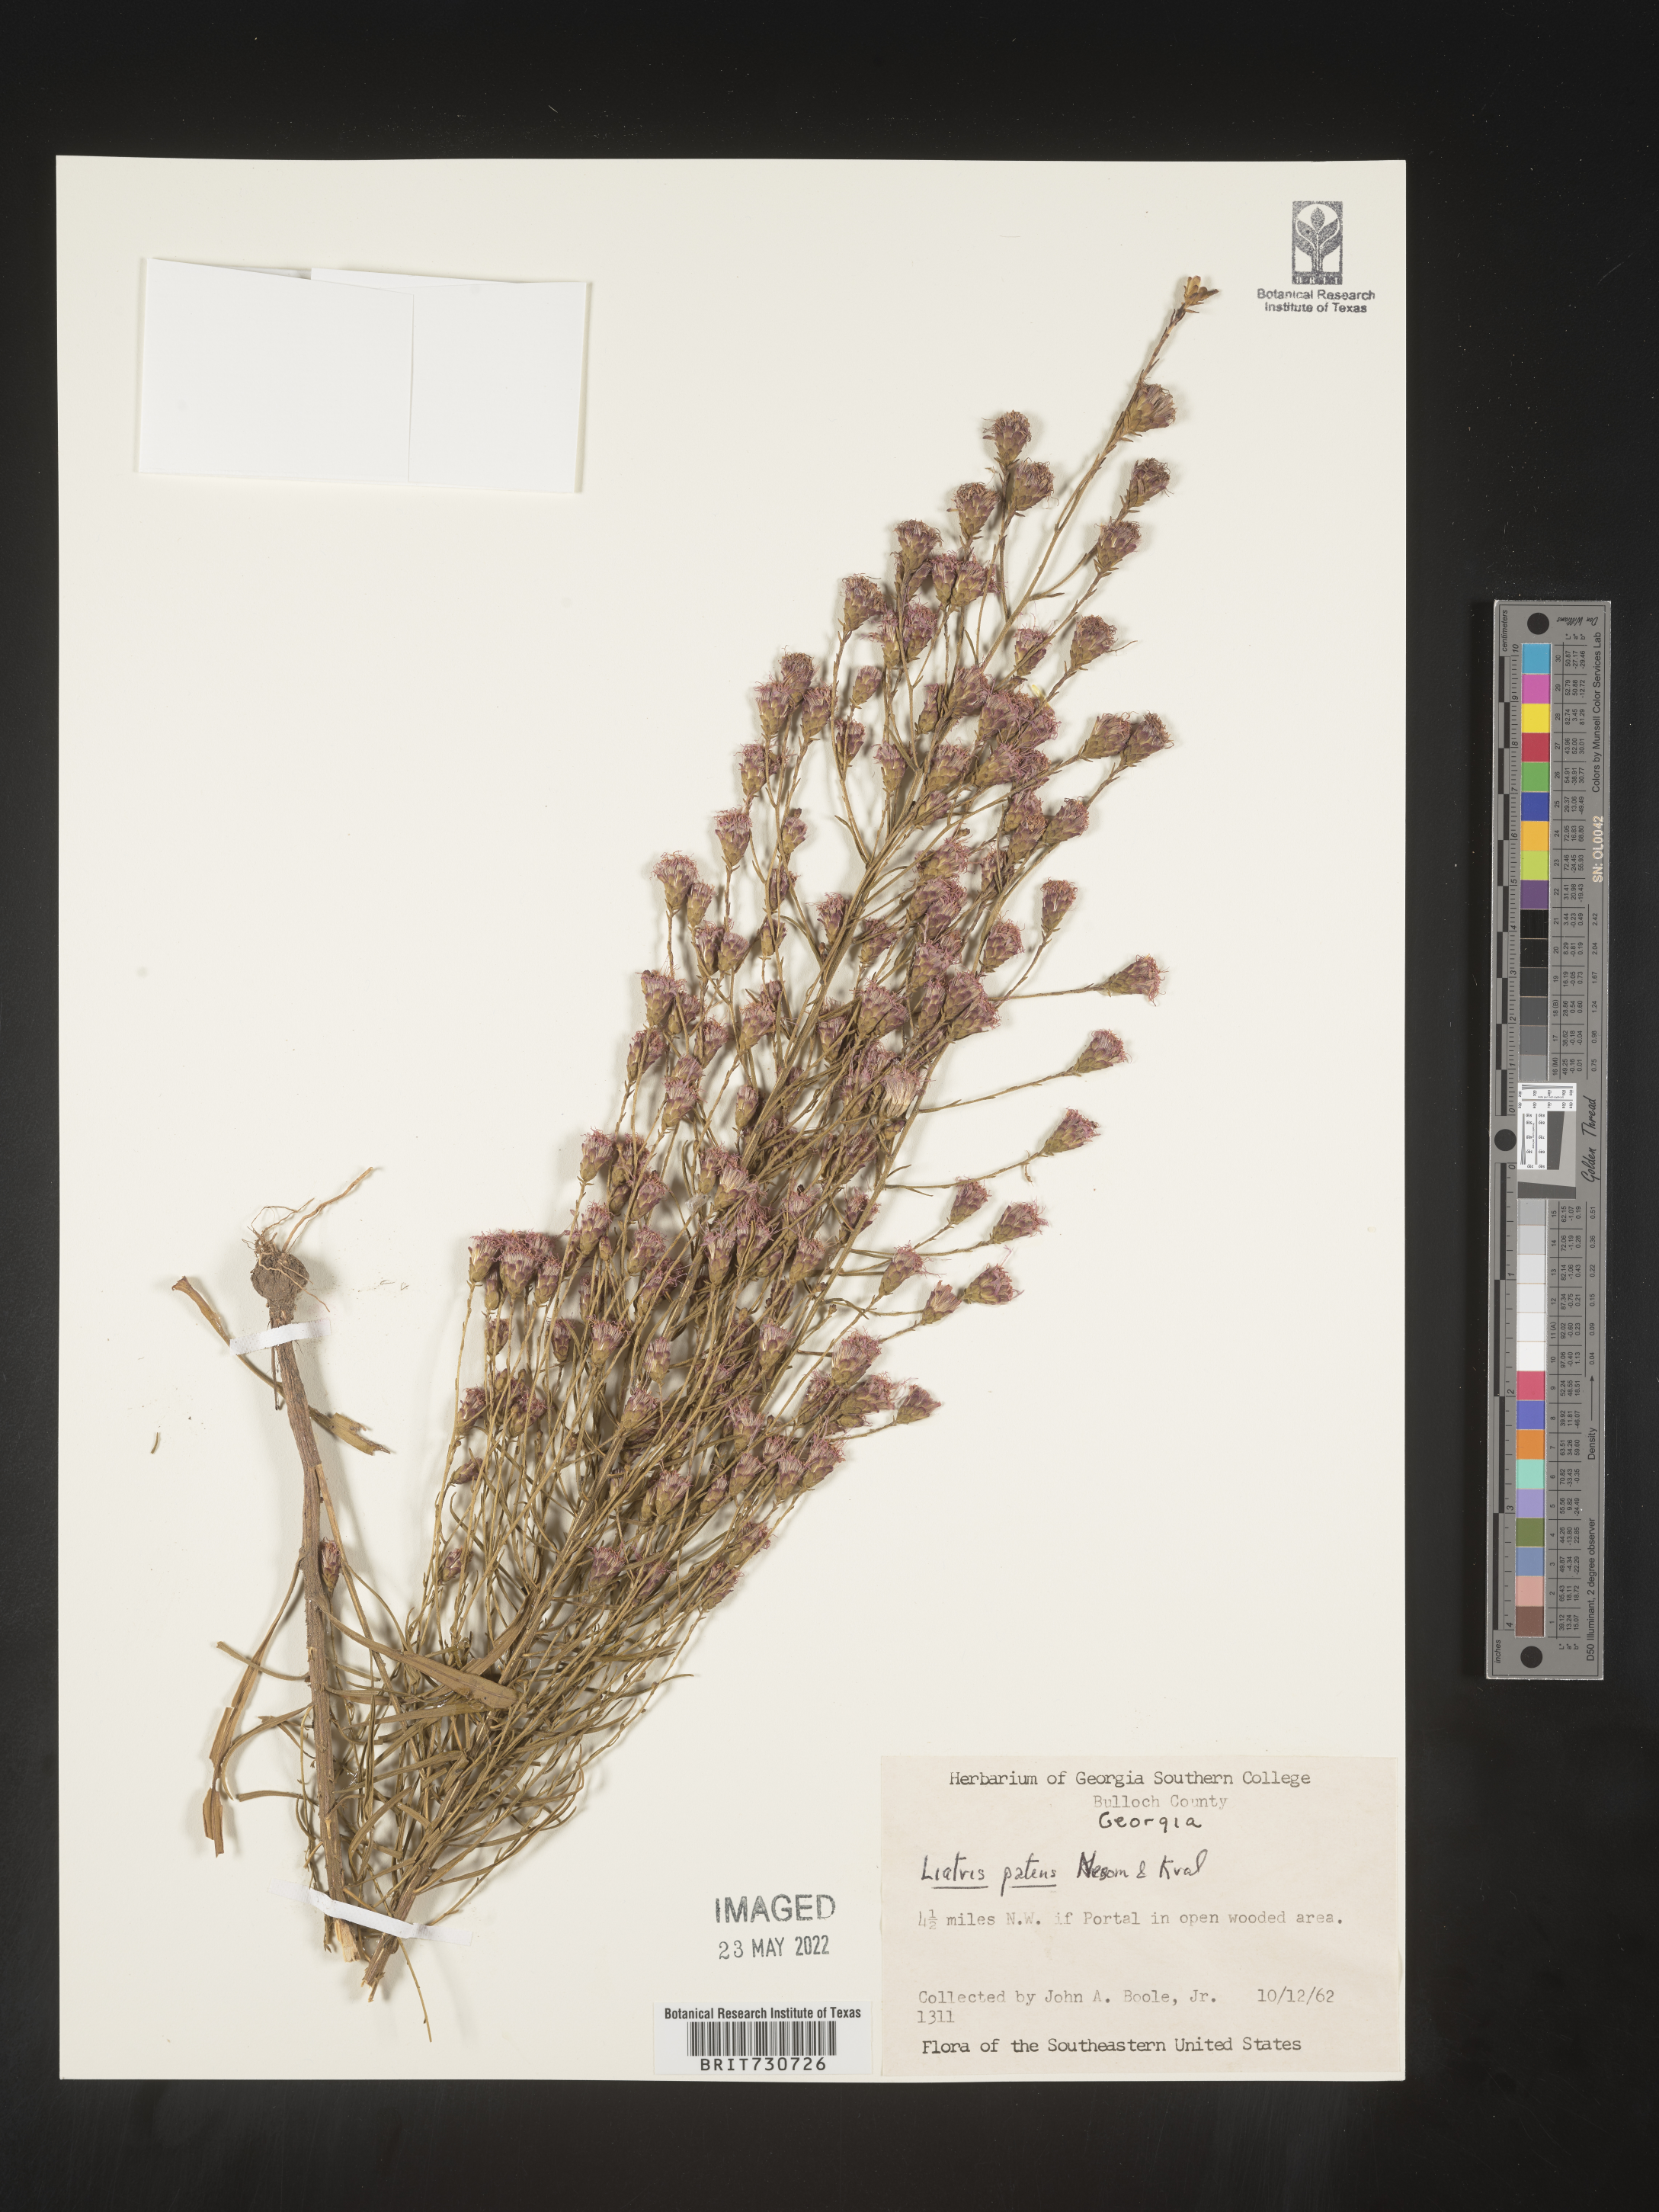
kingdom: Plantae
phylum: Tracheophyta
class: Magnoliopsida
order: Asterales
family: Asteraceae
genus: Liatris
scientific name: Liatris patens
